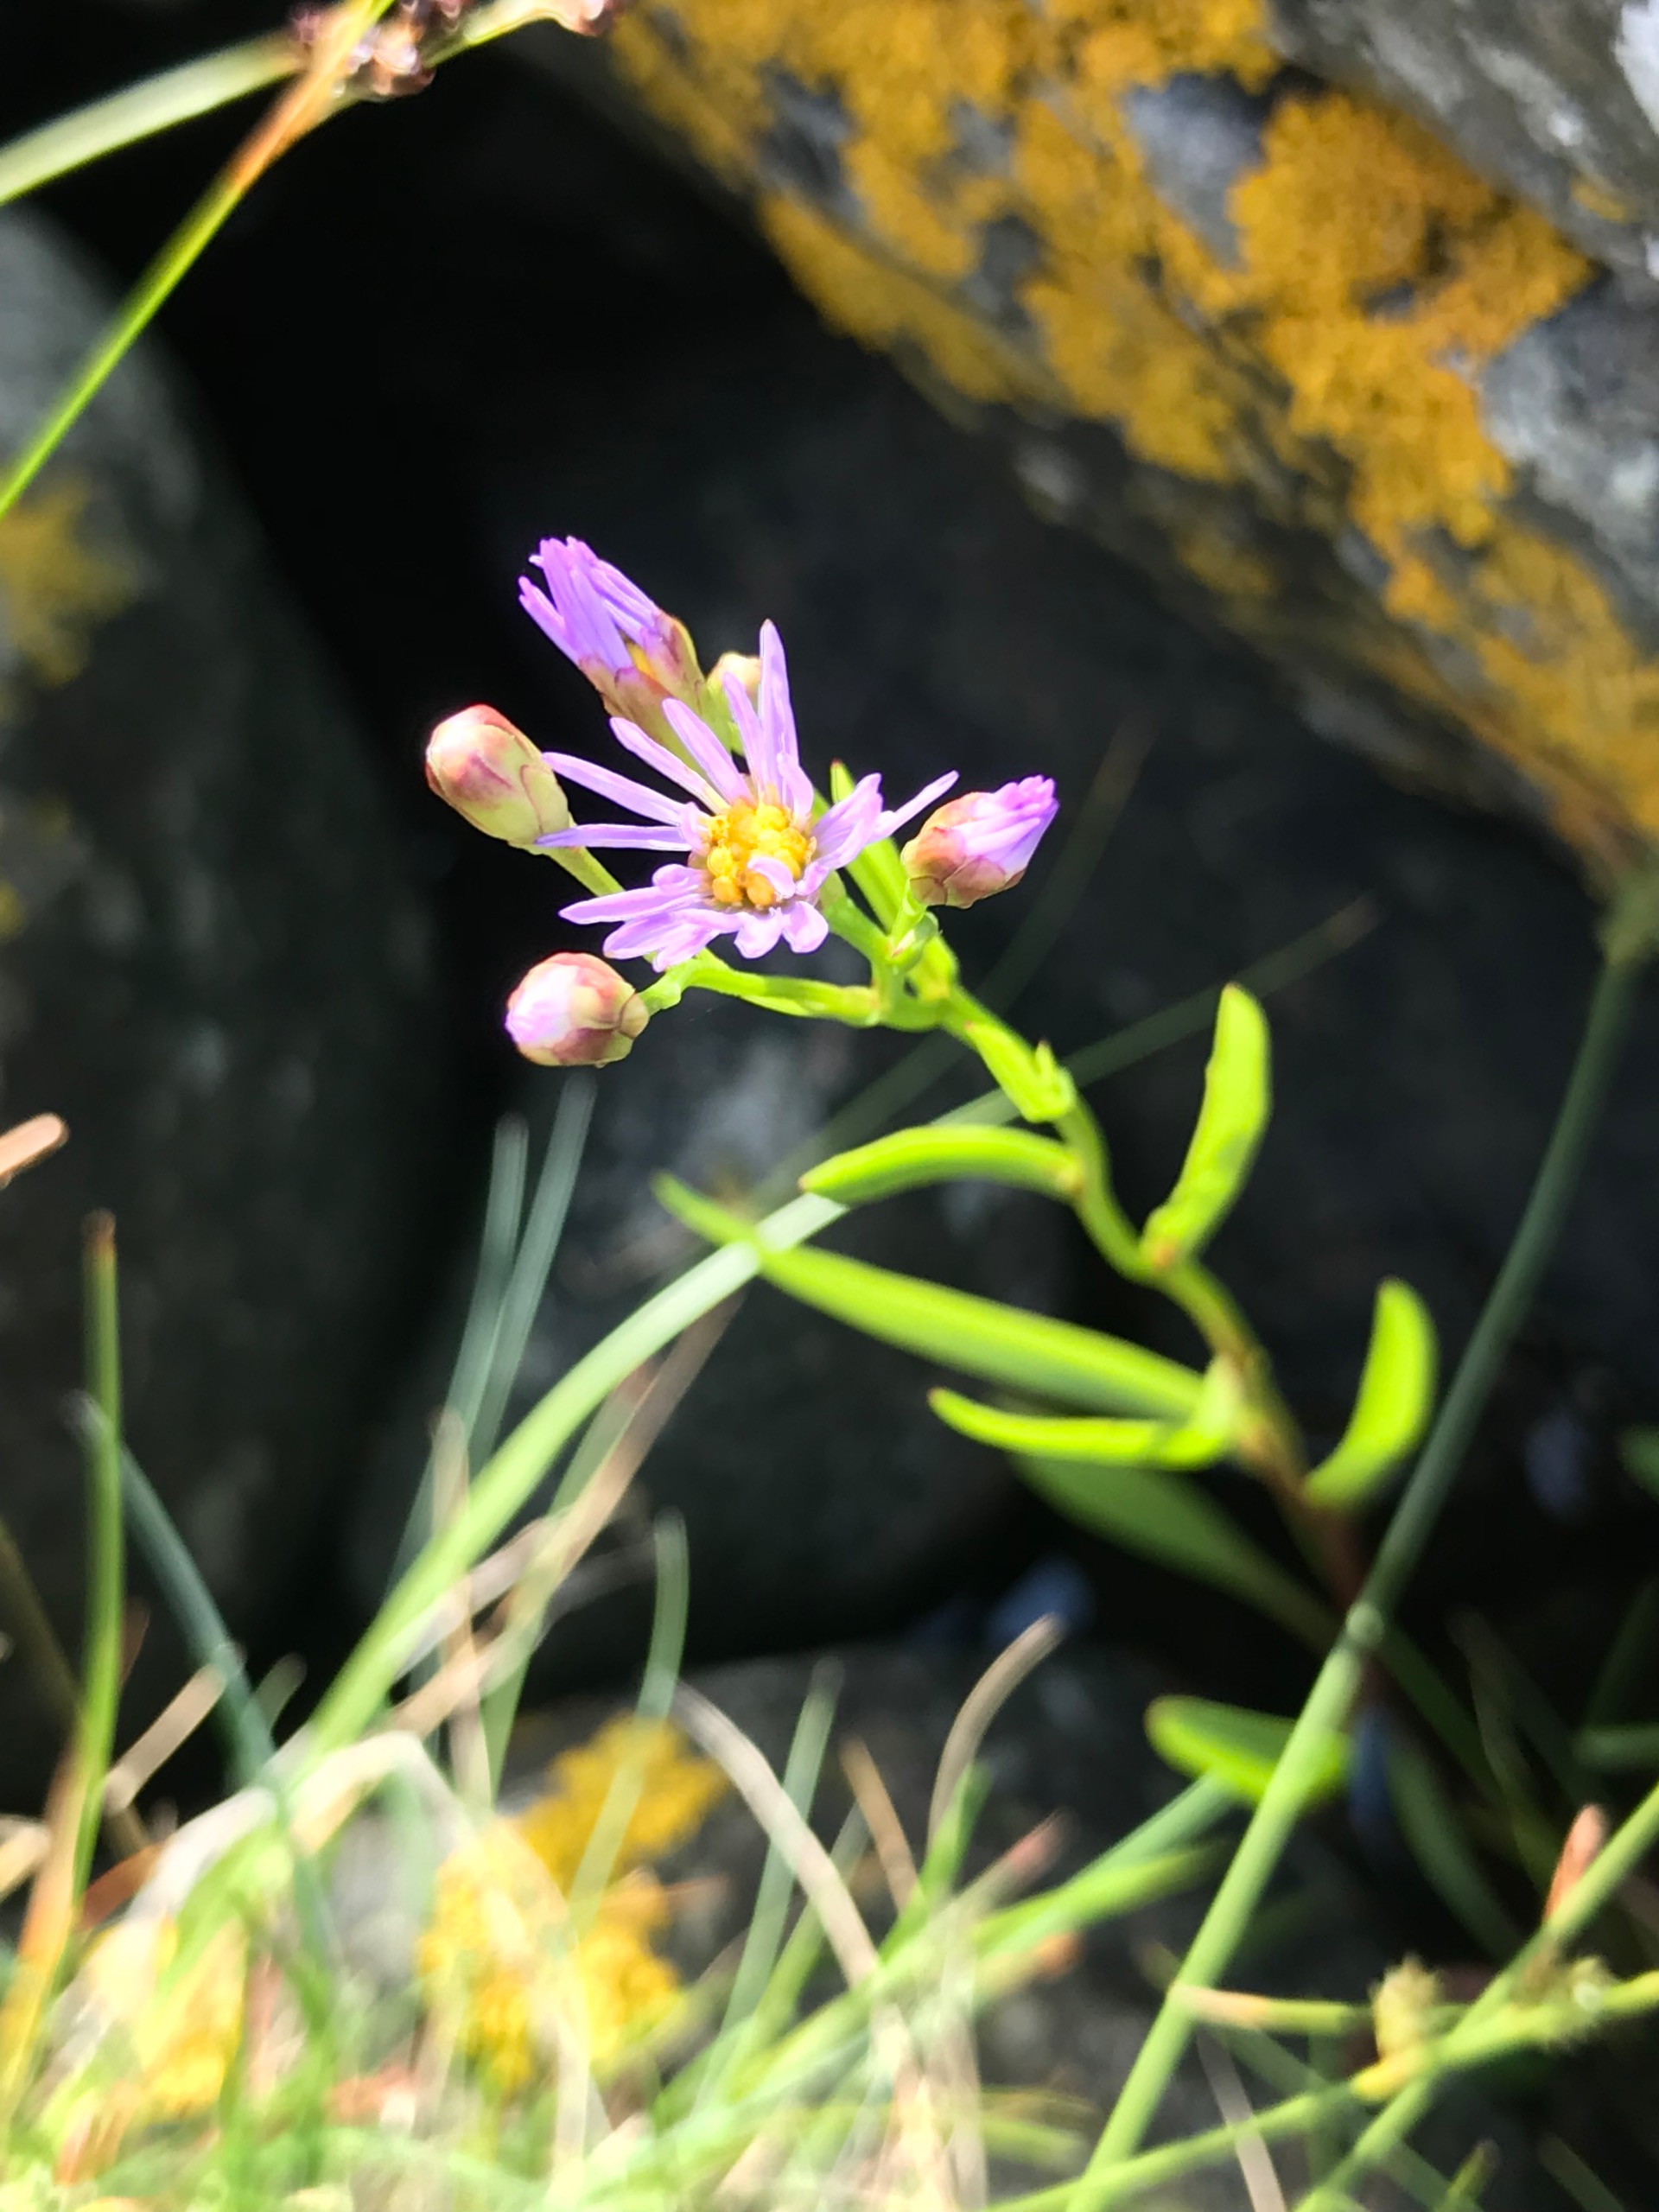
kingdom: Plantae
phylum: Tracheophyta
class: Magnoliopsida
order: Asterales
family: Asteraceae
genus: Tripolium
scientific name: Tripolium pannonicum
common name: Strandasters
